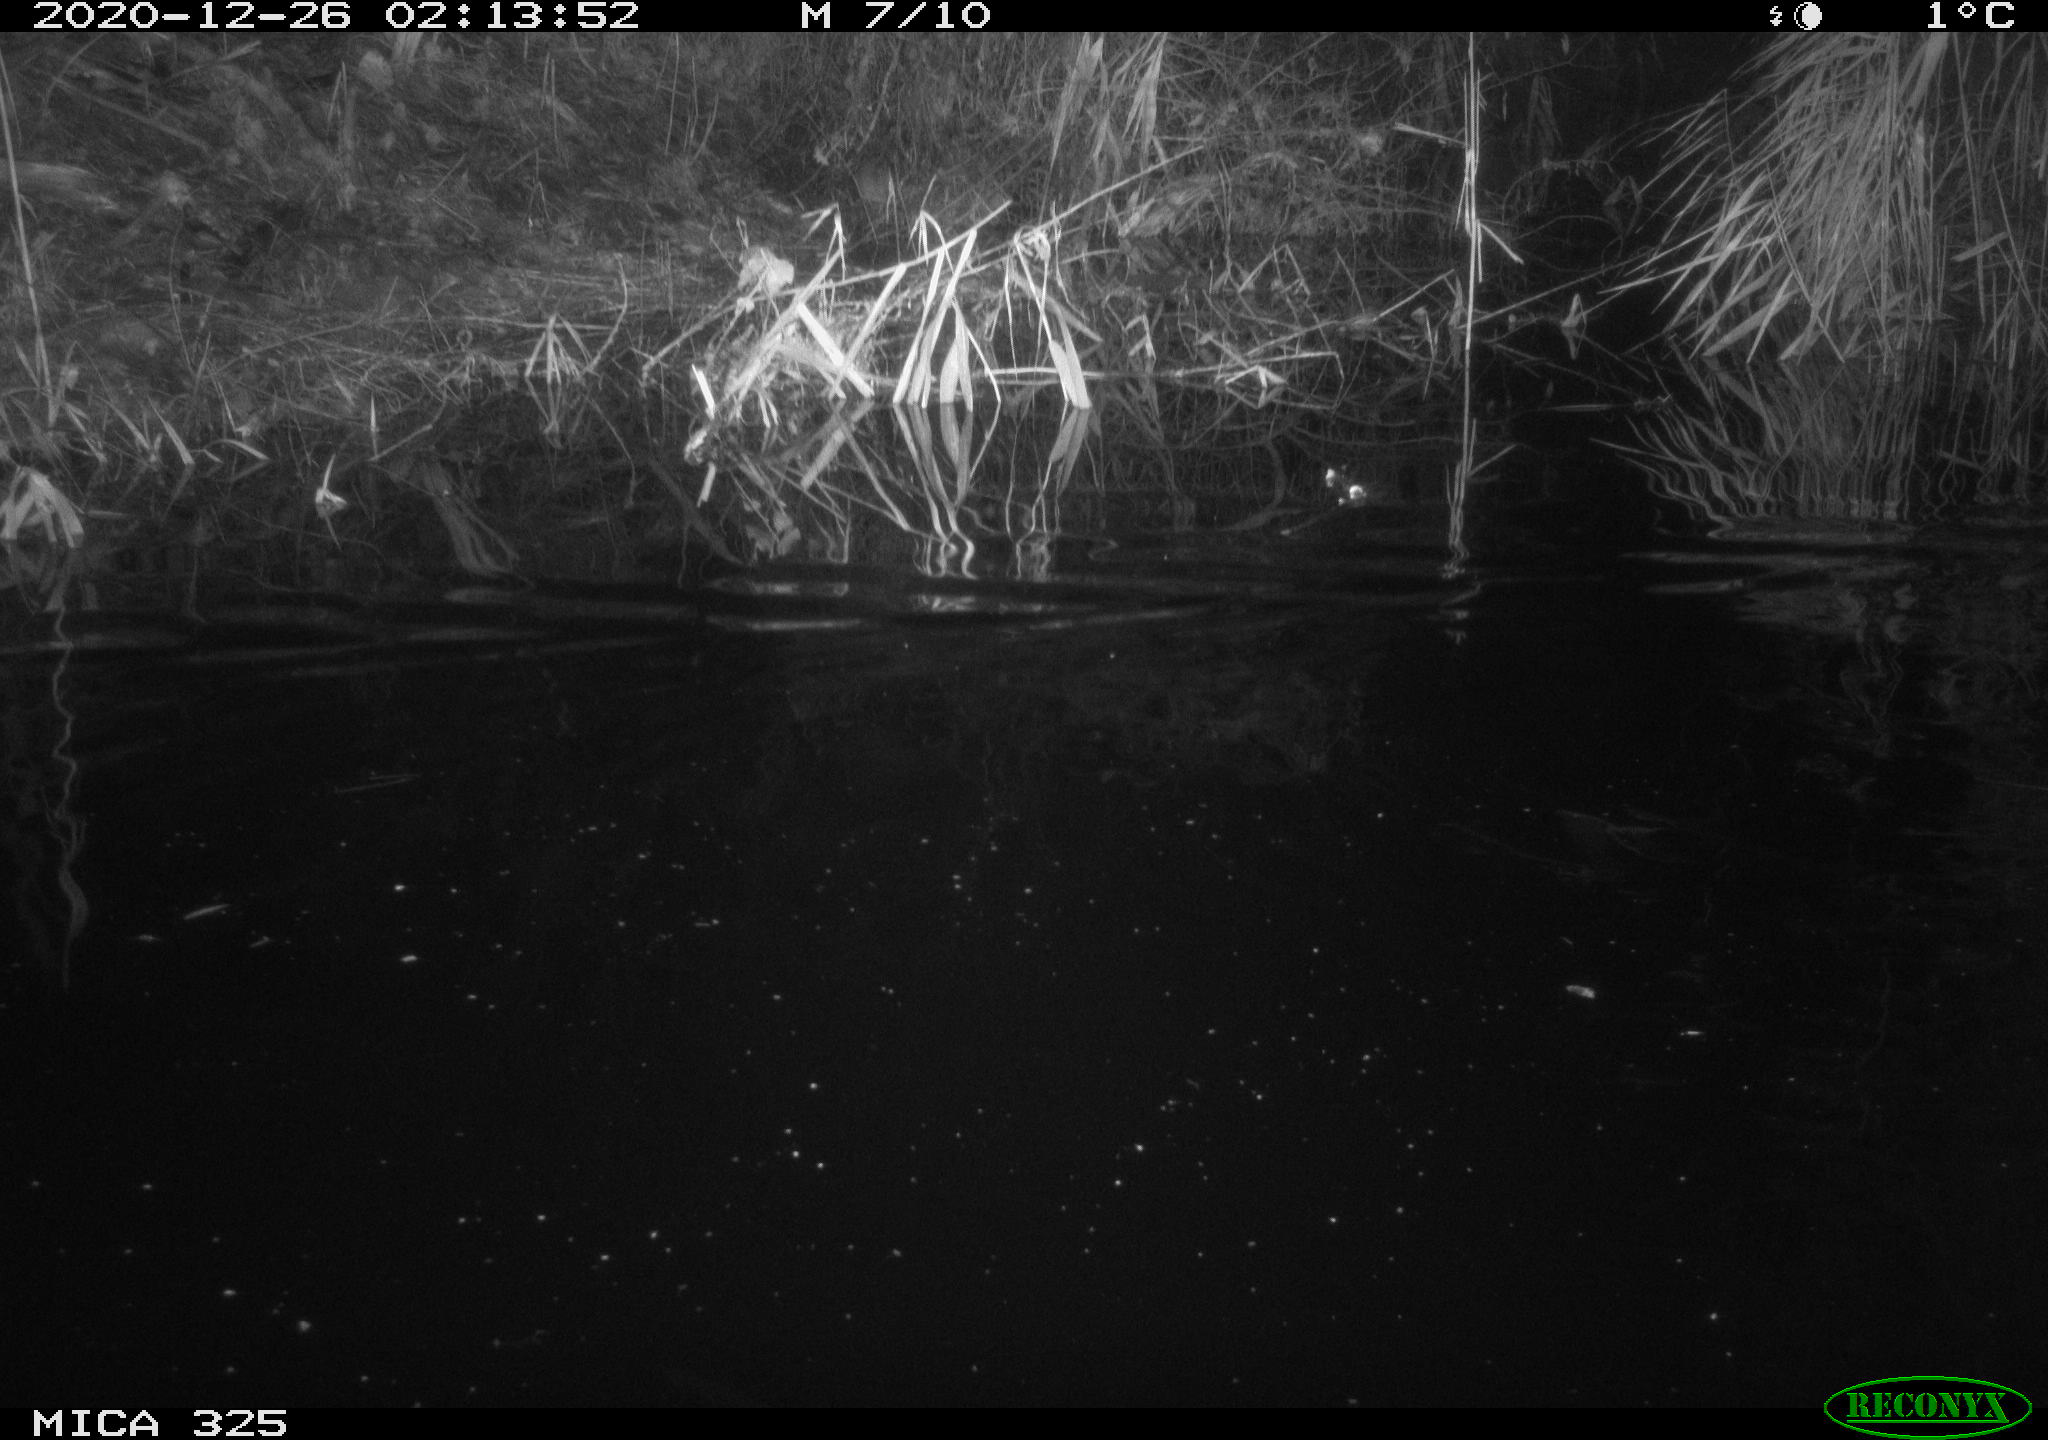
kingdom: Animalia
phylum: Chordata
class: Mammalia
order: Rodentia
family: Cricetidae
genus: Ondatra
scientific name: Ondatra zibethicus
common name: Muskrat
